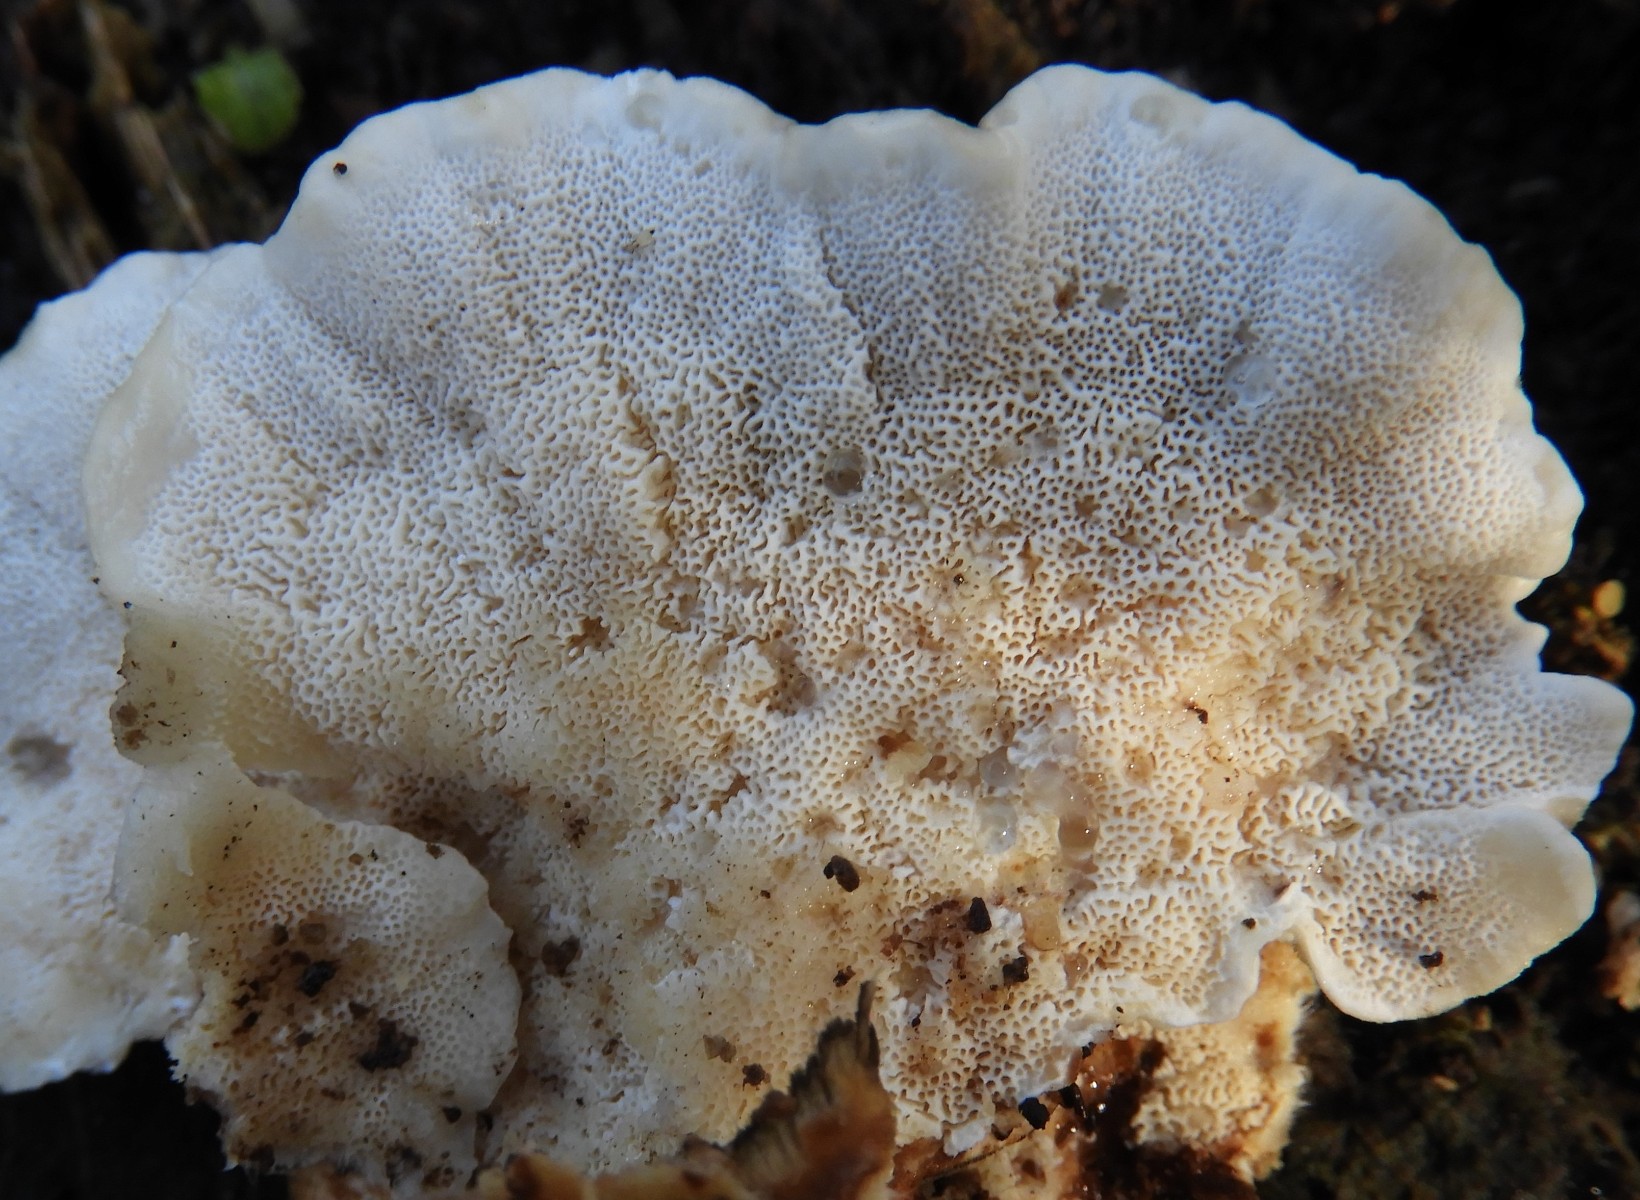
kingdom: Fungi
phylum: Basidiomycota
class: Agaricomycetes
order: Polyporales
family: Polyporaceae
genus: Trametes
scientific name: Trametes versicolor
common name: broget læderporesvamp
